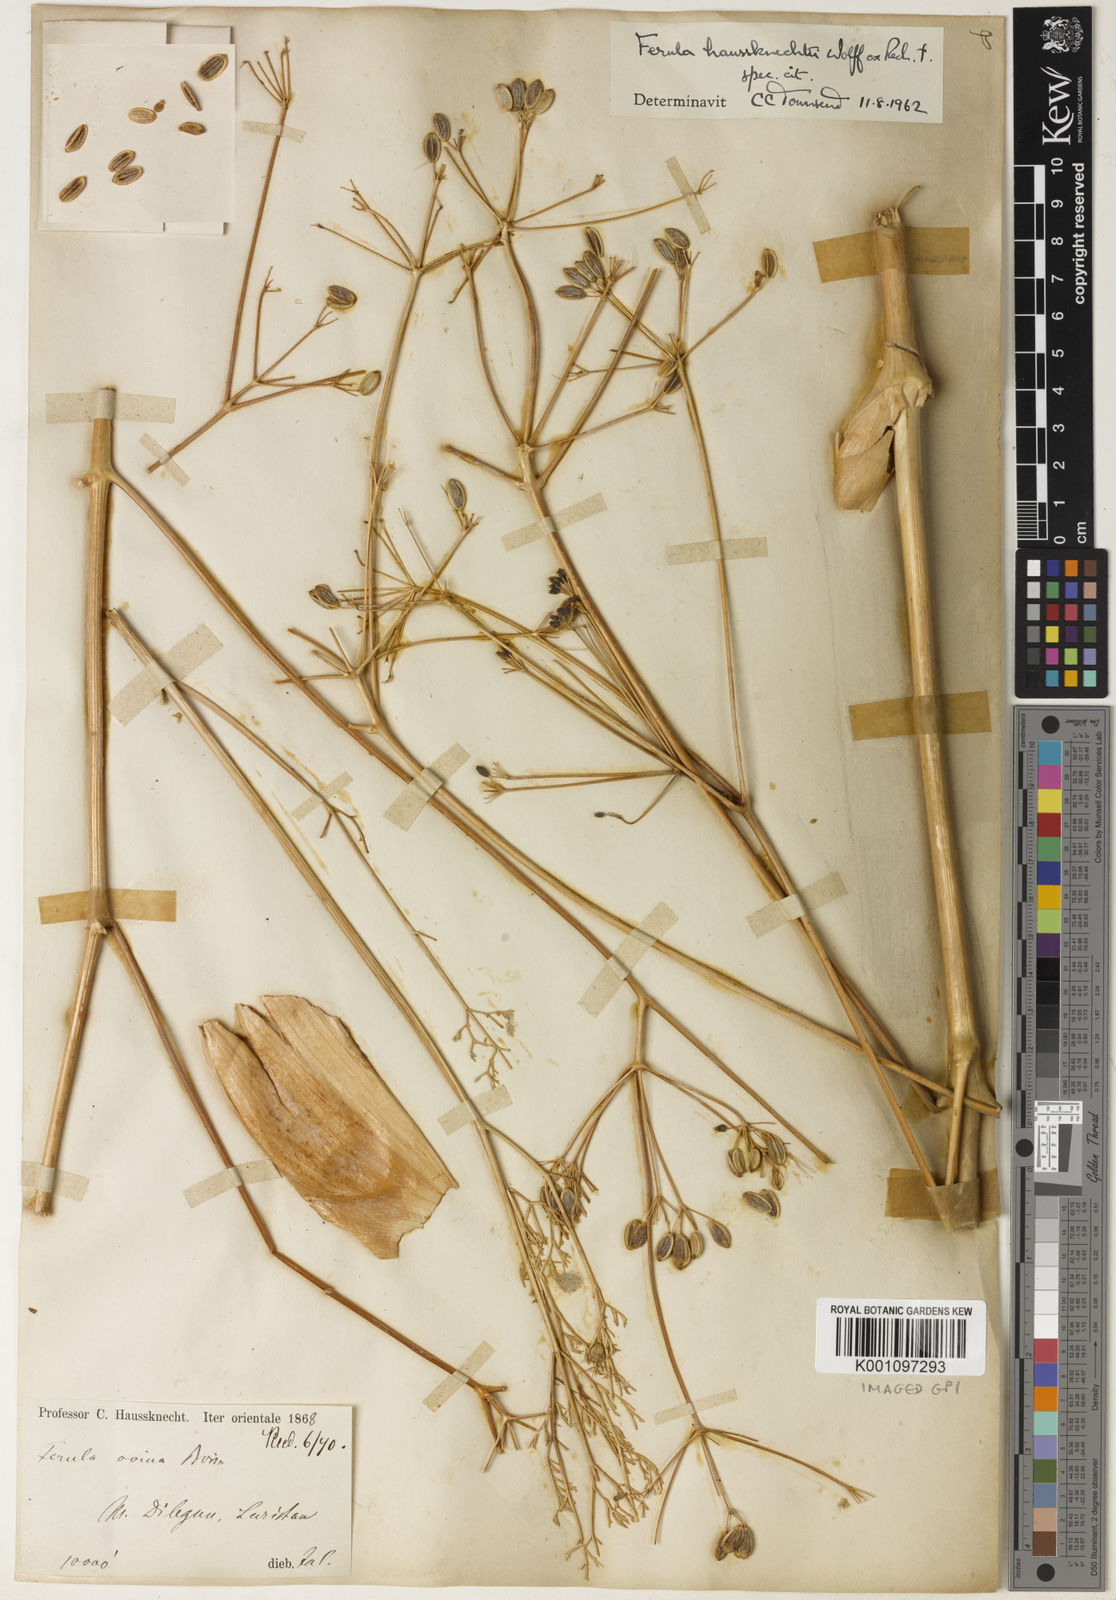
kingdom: Plantae
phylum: Tracheophyta
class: Magnoliopsida
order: Apiales
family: Apiaceae
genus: Ferula
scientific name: Ferula haussknechtii
